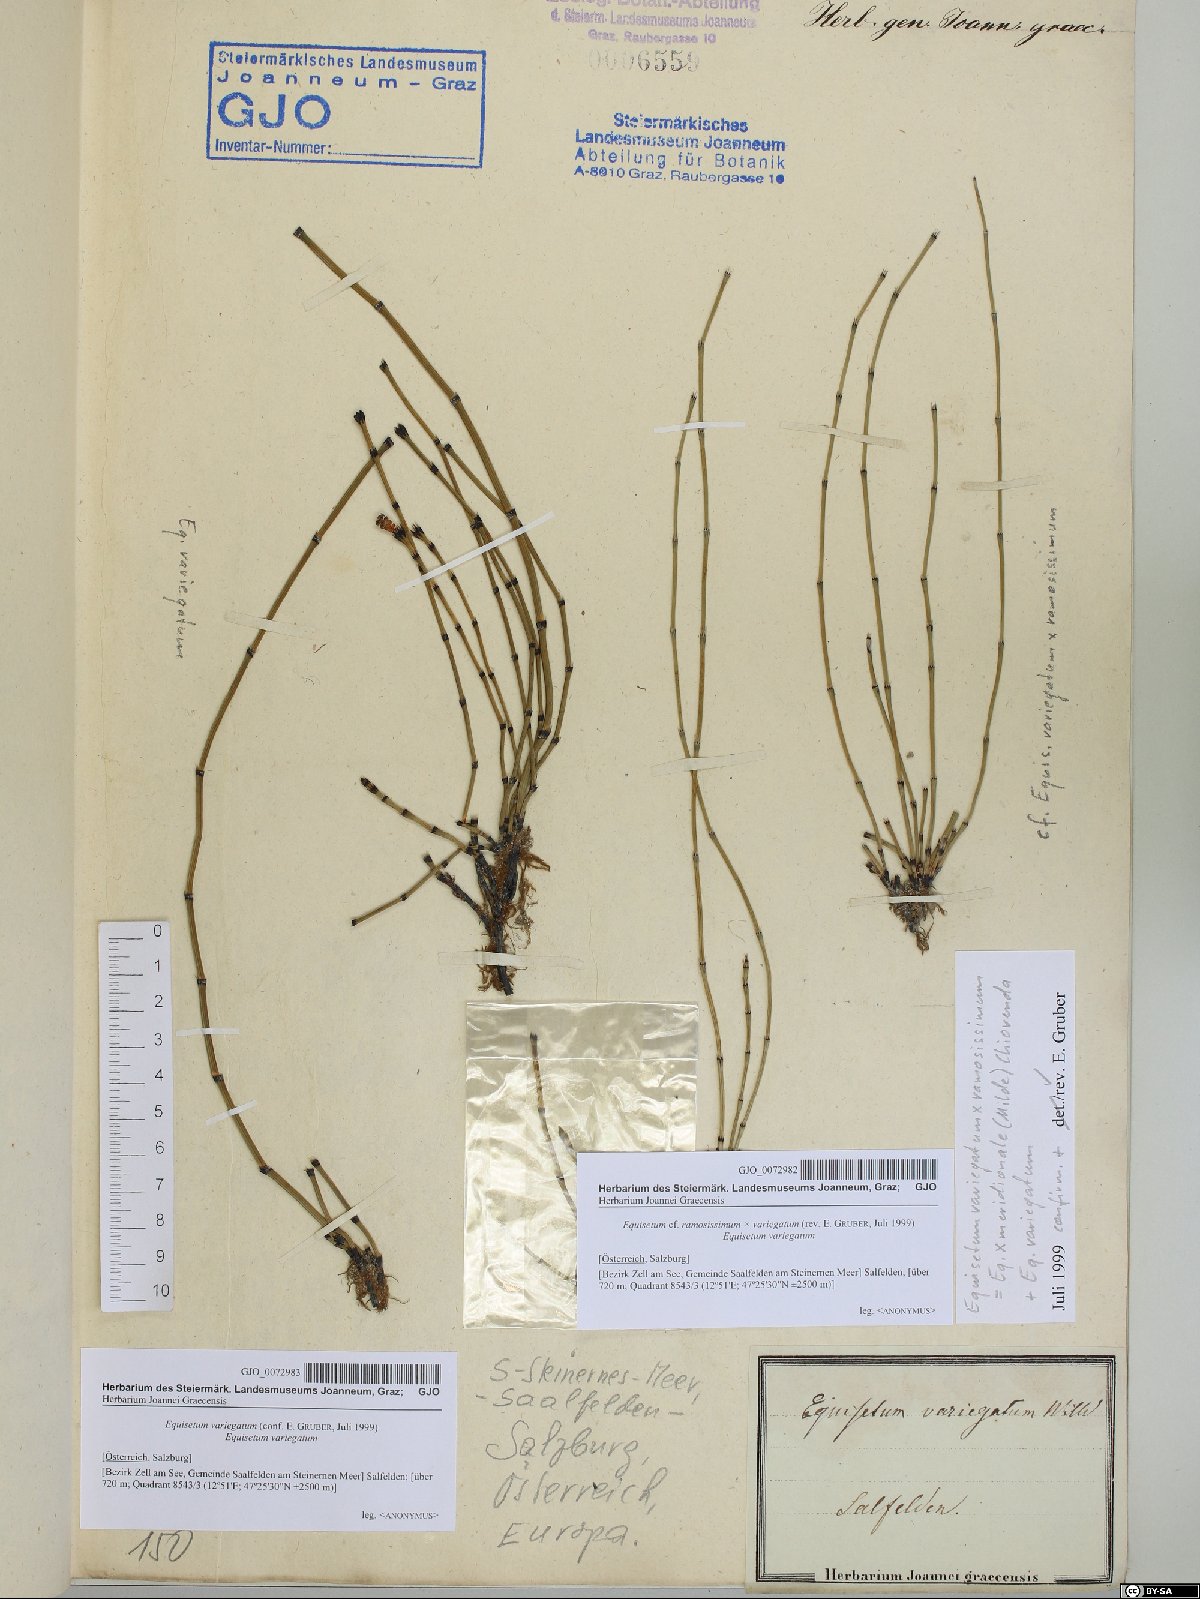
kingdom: Plantae
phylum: Tracheophyta
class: Polypodiopsida
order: Equisetales
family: Equisetaceae
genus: Equisetum
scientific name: Equisetum ramosissimum
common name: Branched horsetail
